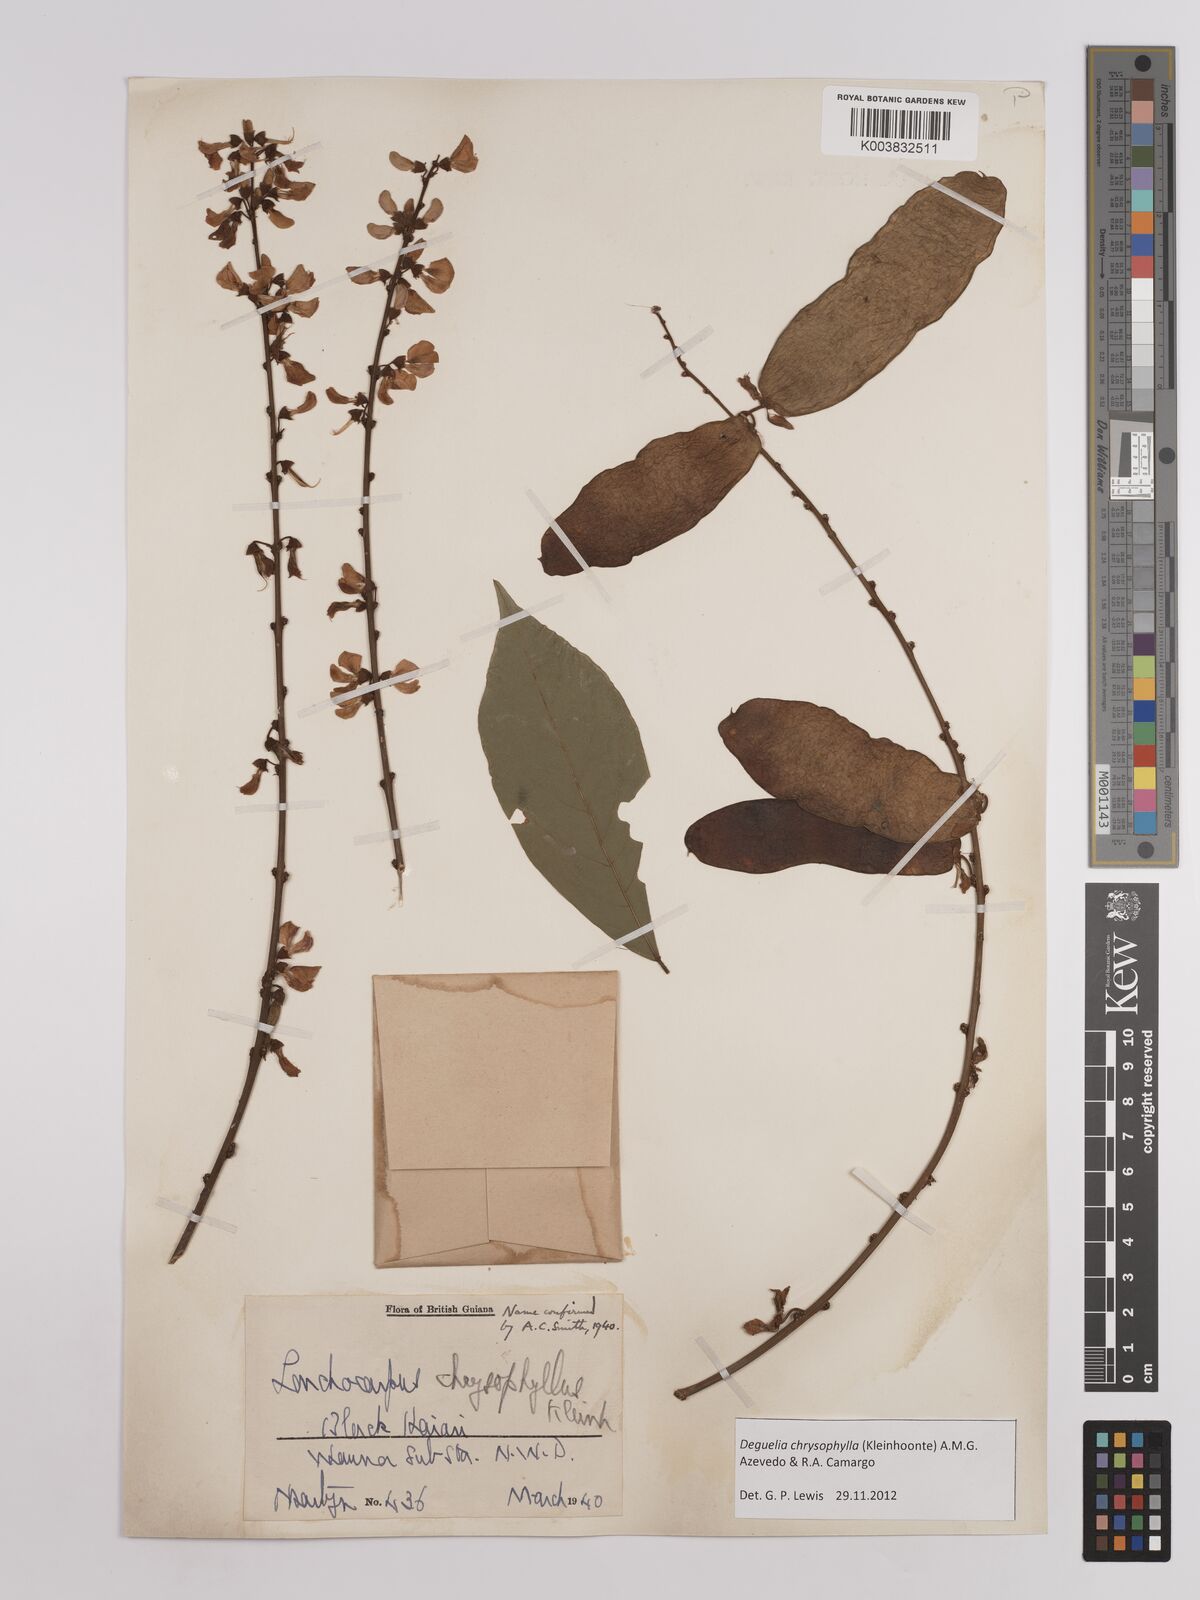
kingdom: Plantae
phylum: Tracheophyta
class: Magnoliopsida
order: Fabales
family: Fabaceae
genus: Deguelia
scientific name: Deguelia chrysophylla
